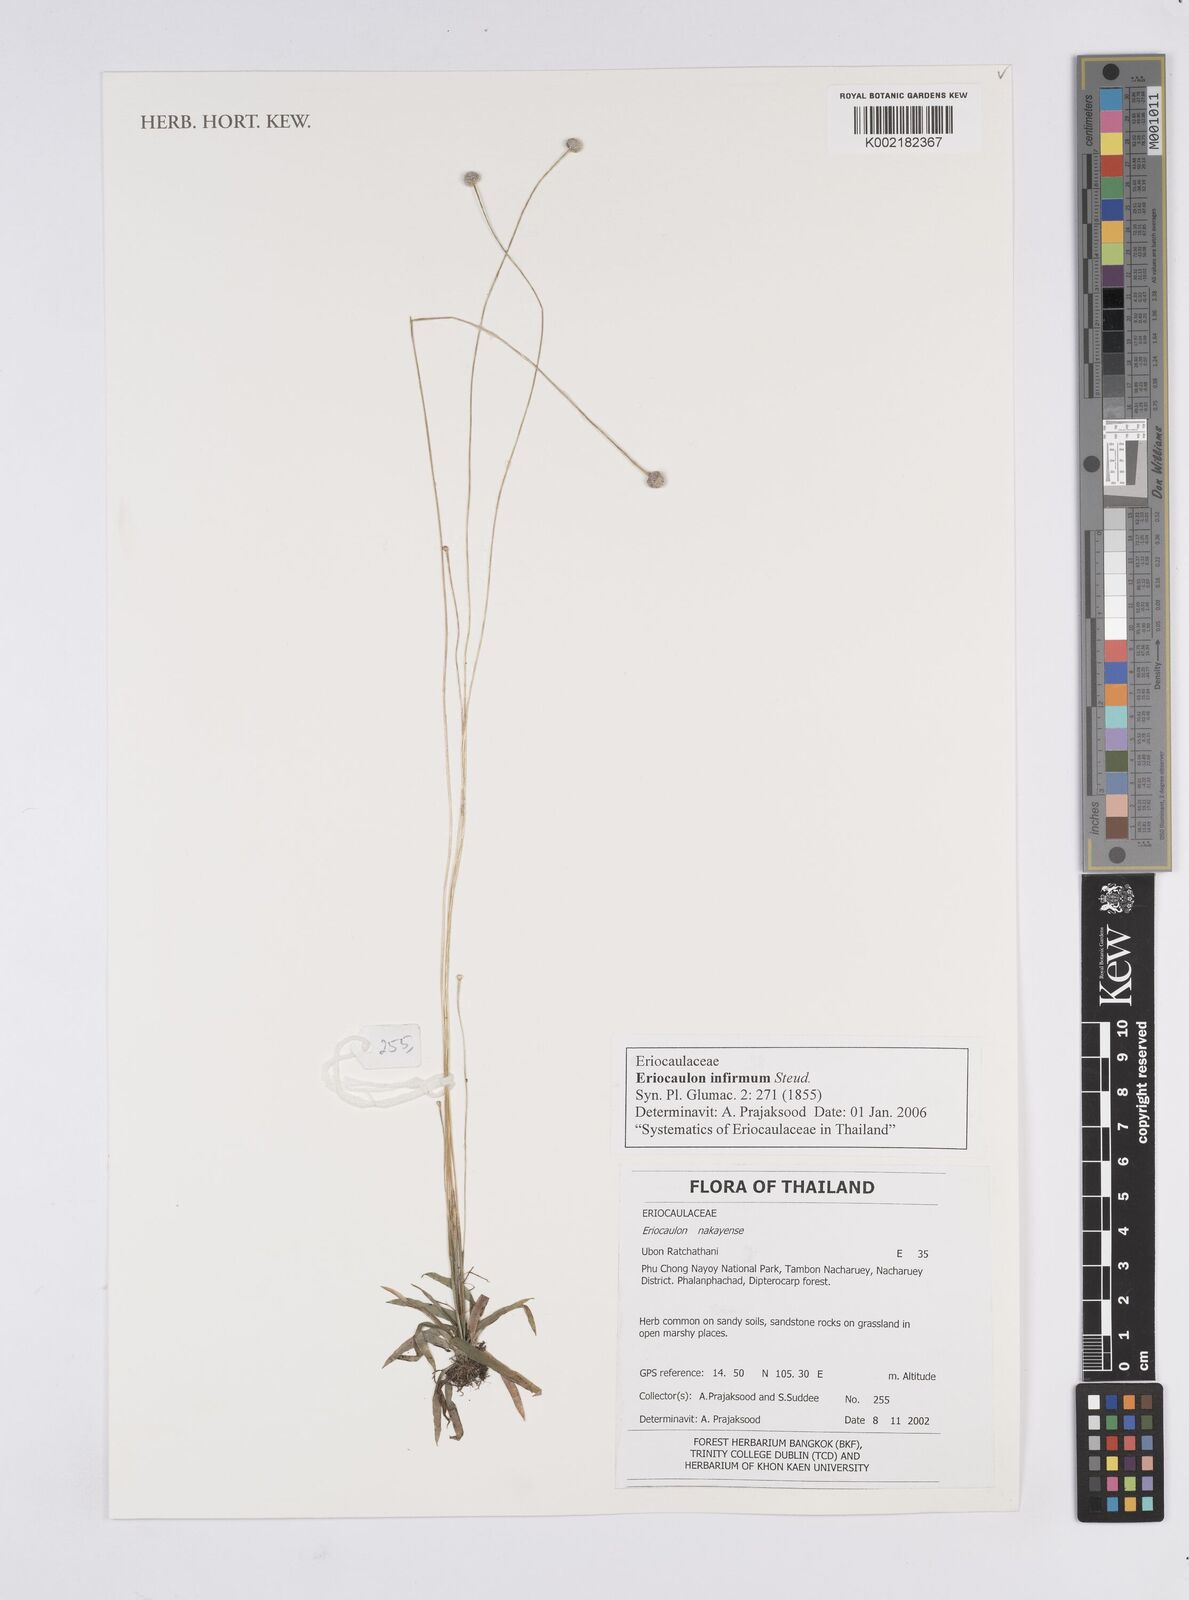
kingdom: Plantae
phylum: Tracheophyta
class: Liliopsida
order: Poales
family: Eriocaulaceae
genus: Eriocaulon
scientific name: Eriocaulon infirmum
